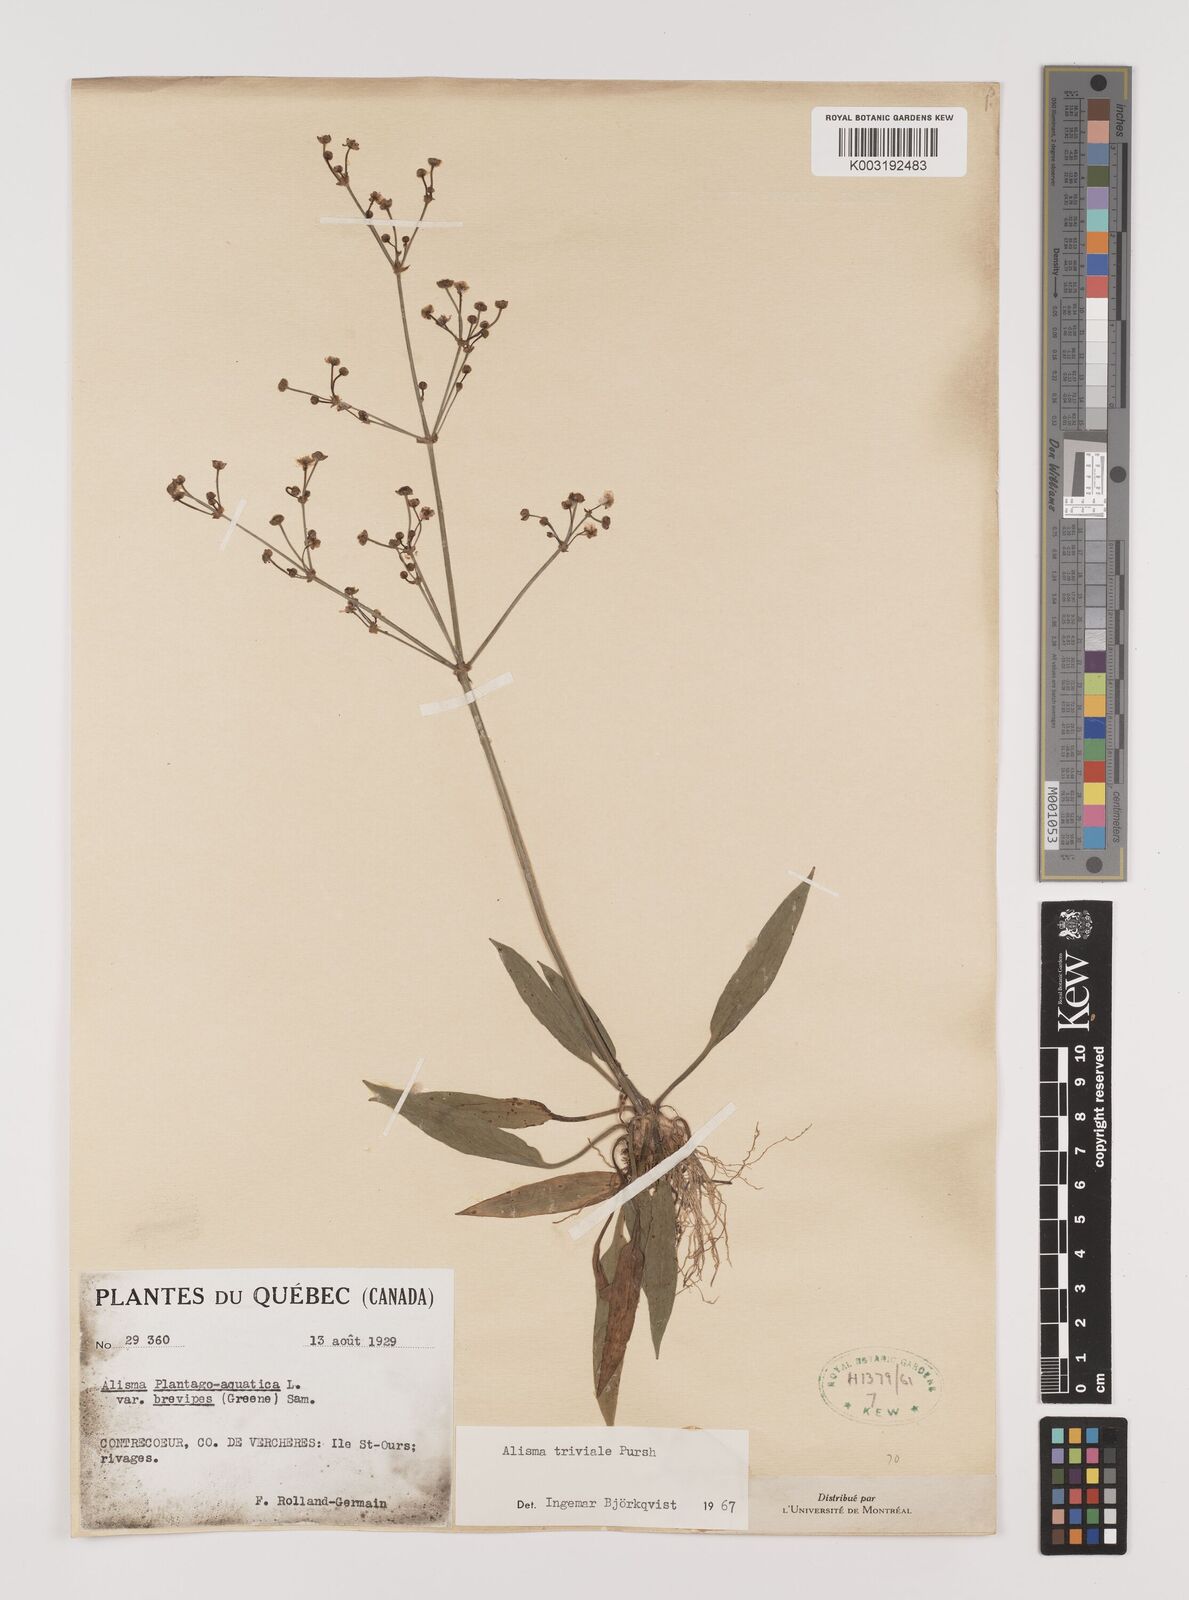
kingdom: Plantae
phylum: Tracheophyta
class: Liliopsida
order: Alismatales
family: Alismataceae
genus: Alisma
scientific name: Alisma triviale
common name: Northern water-plantain
